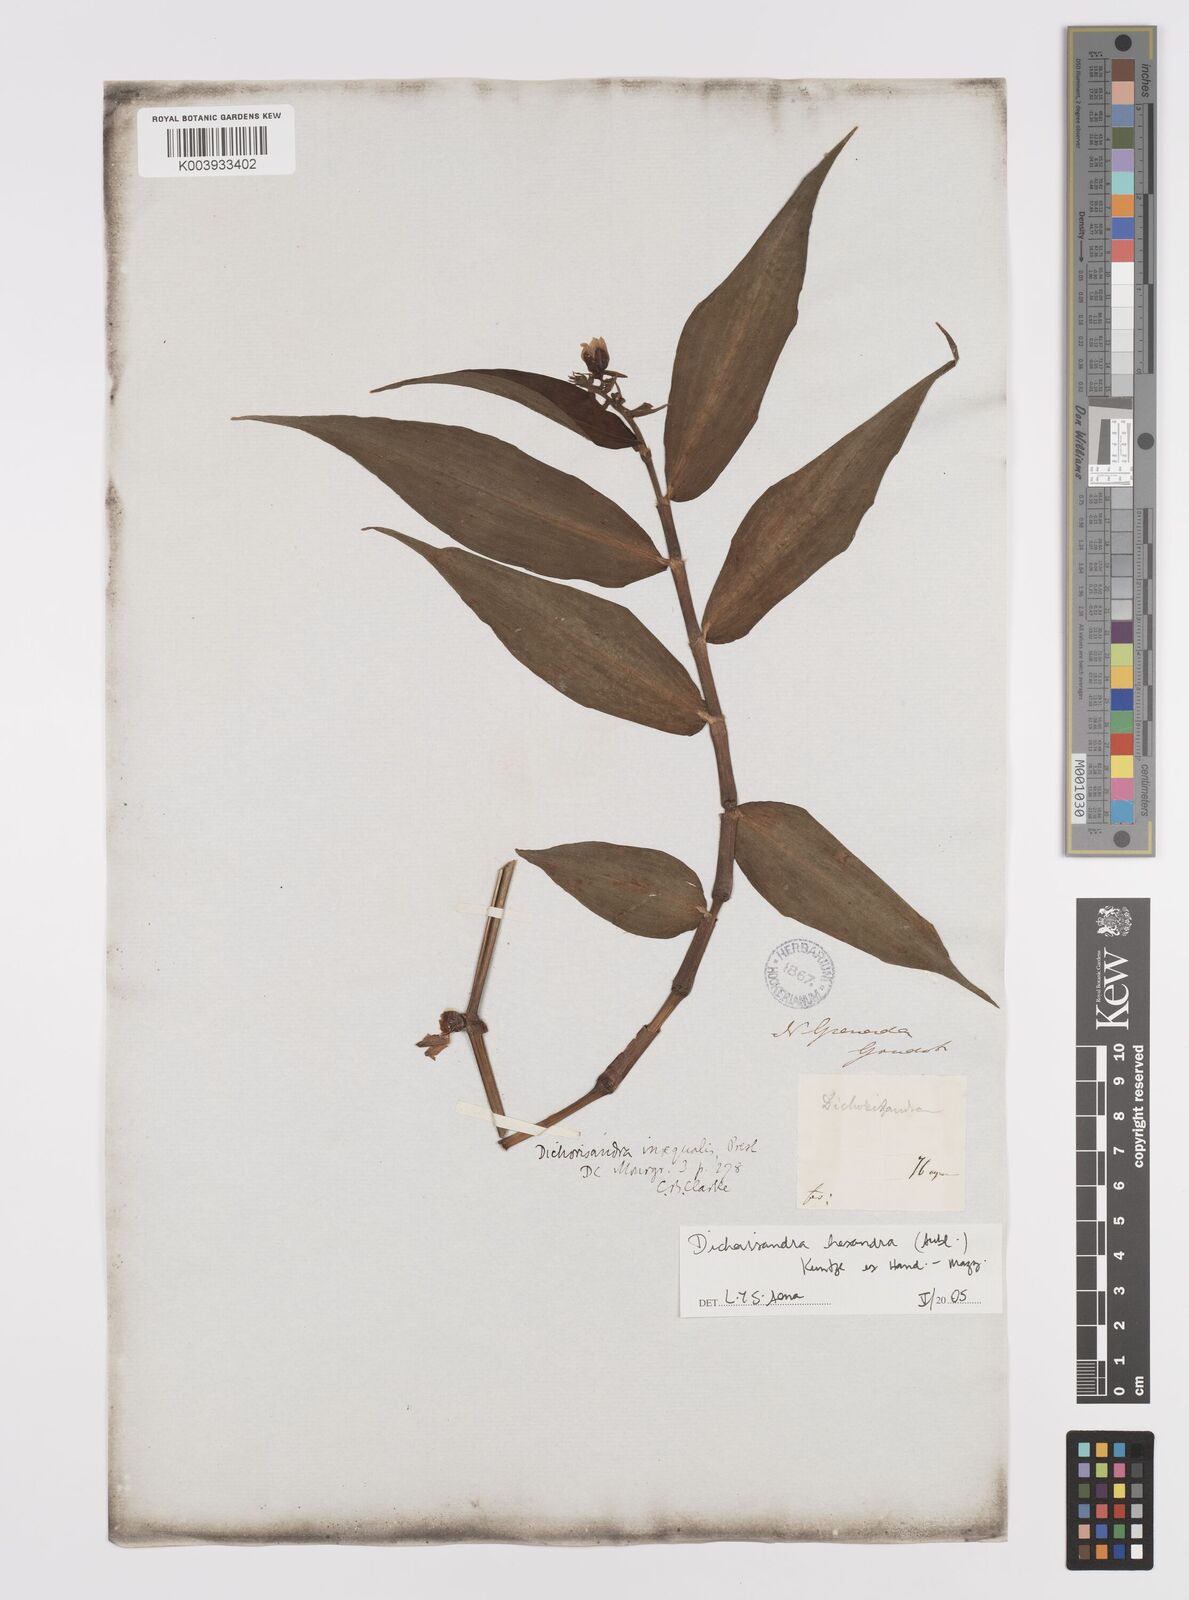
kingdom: Plantae
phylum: Tracheophyta
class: Liliopsida
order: Commelinales
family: Commelinaceae
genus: Dichorisandra
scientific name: Dichorisandra hexandra
